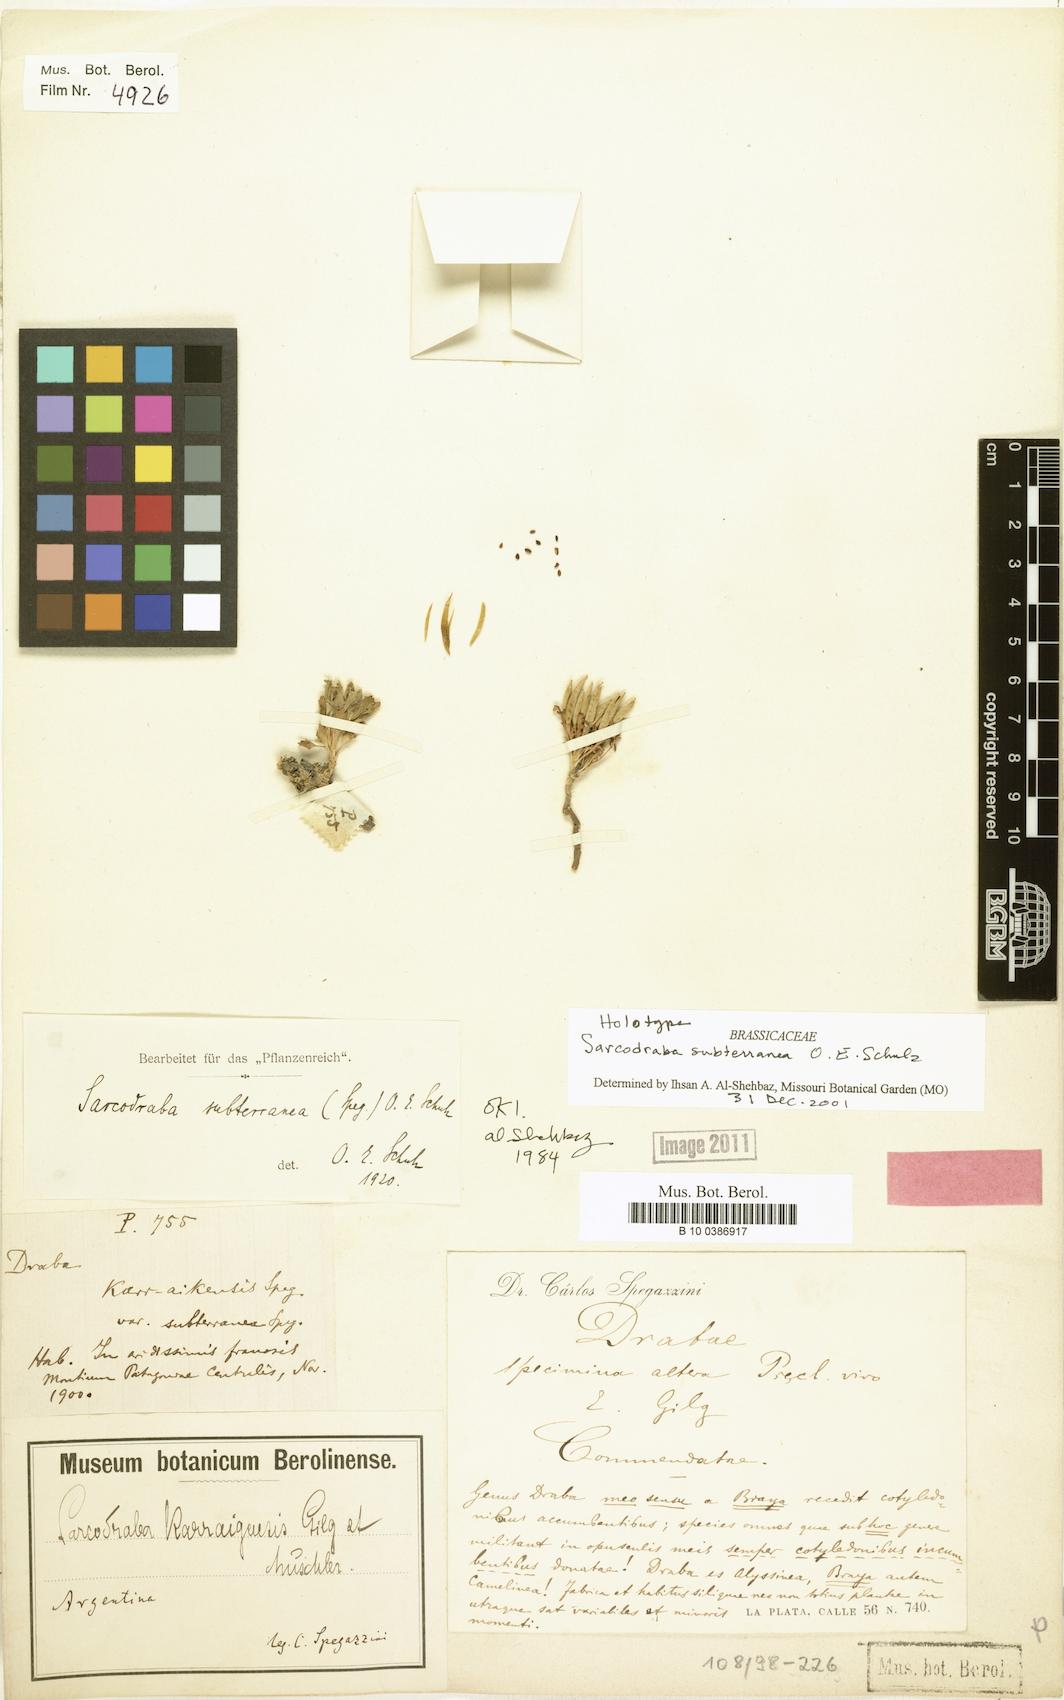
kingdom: Plantae
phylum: Tracheophyta
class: Magnoliopsida
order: Brassicales
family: Brassicaceae
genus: Sarcodraba
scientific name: Sarcodraba subterranea
